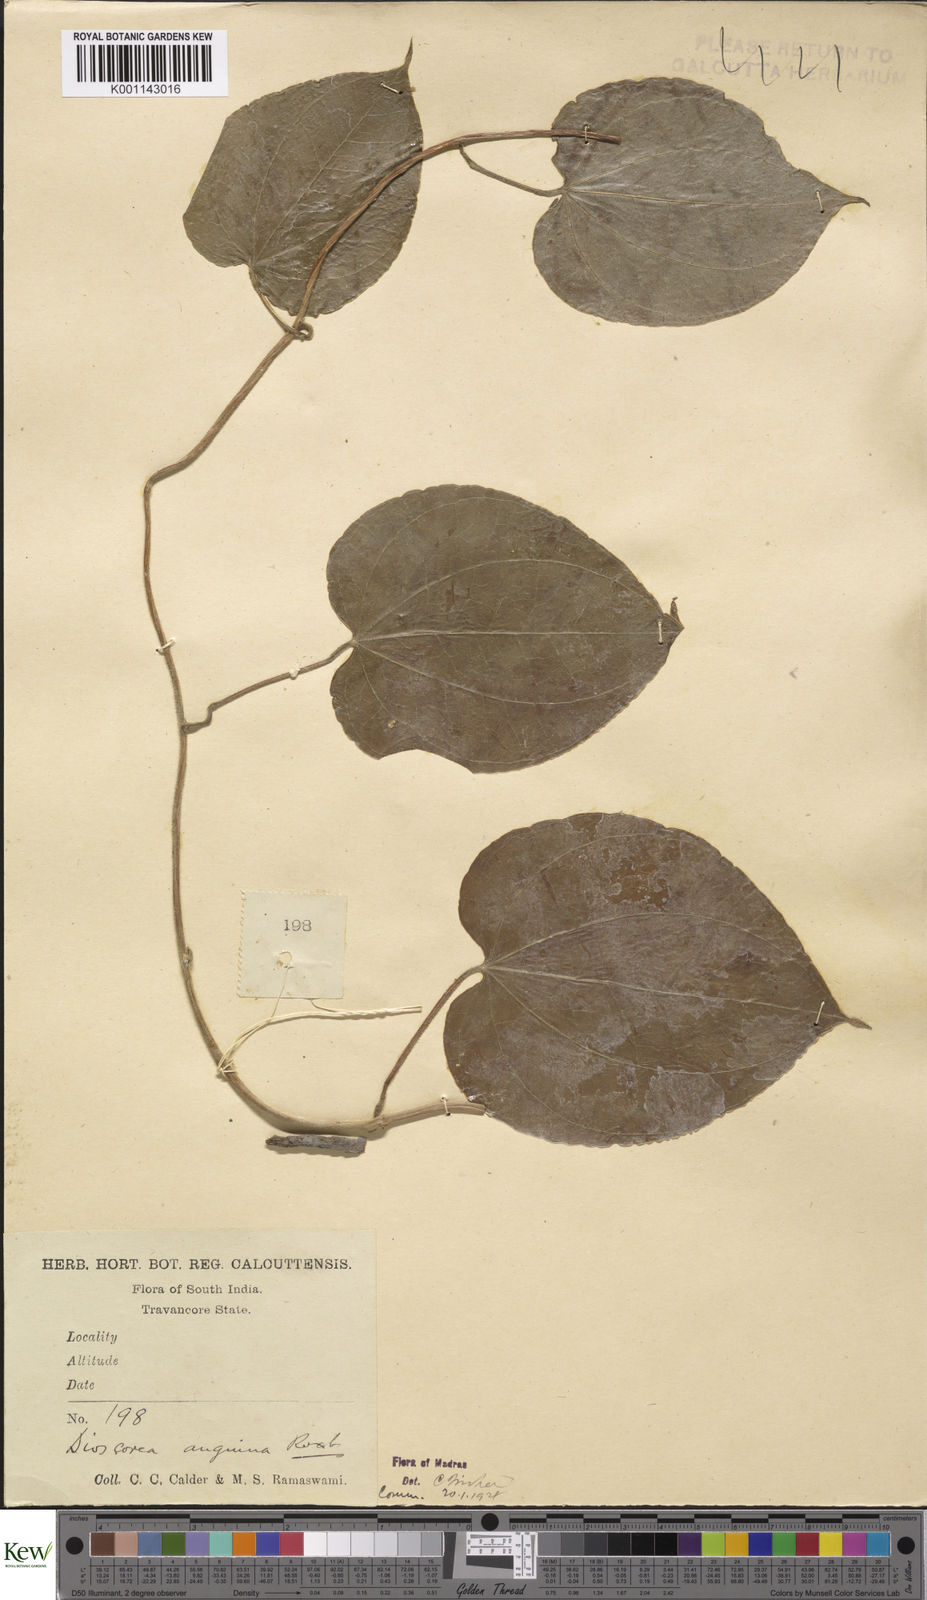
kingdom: Plantae
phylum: Tracheophyta
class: Liliopsida
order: Dioscoreales
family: Dioscoreaceae
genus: Dioscorea
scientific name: Dioscorea pubera
